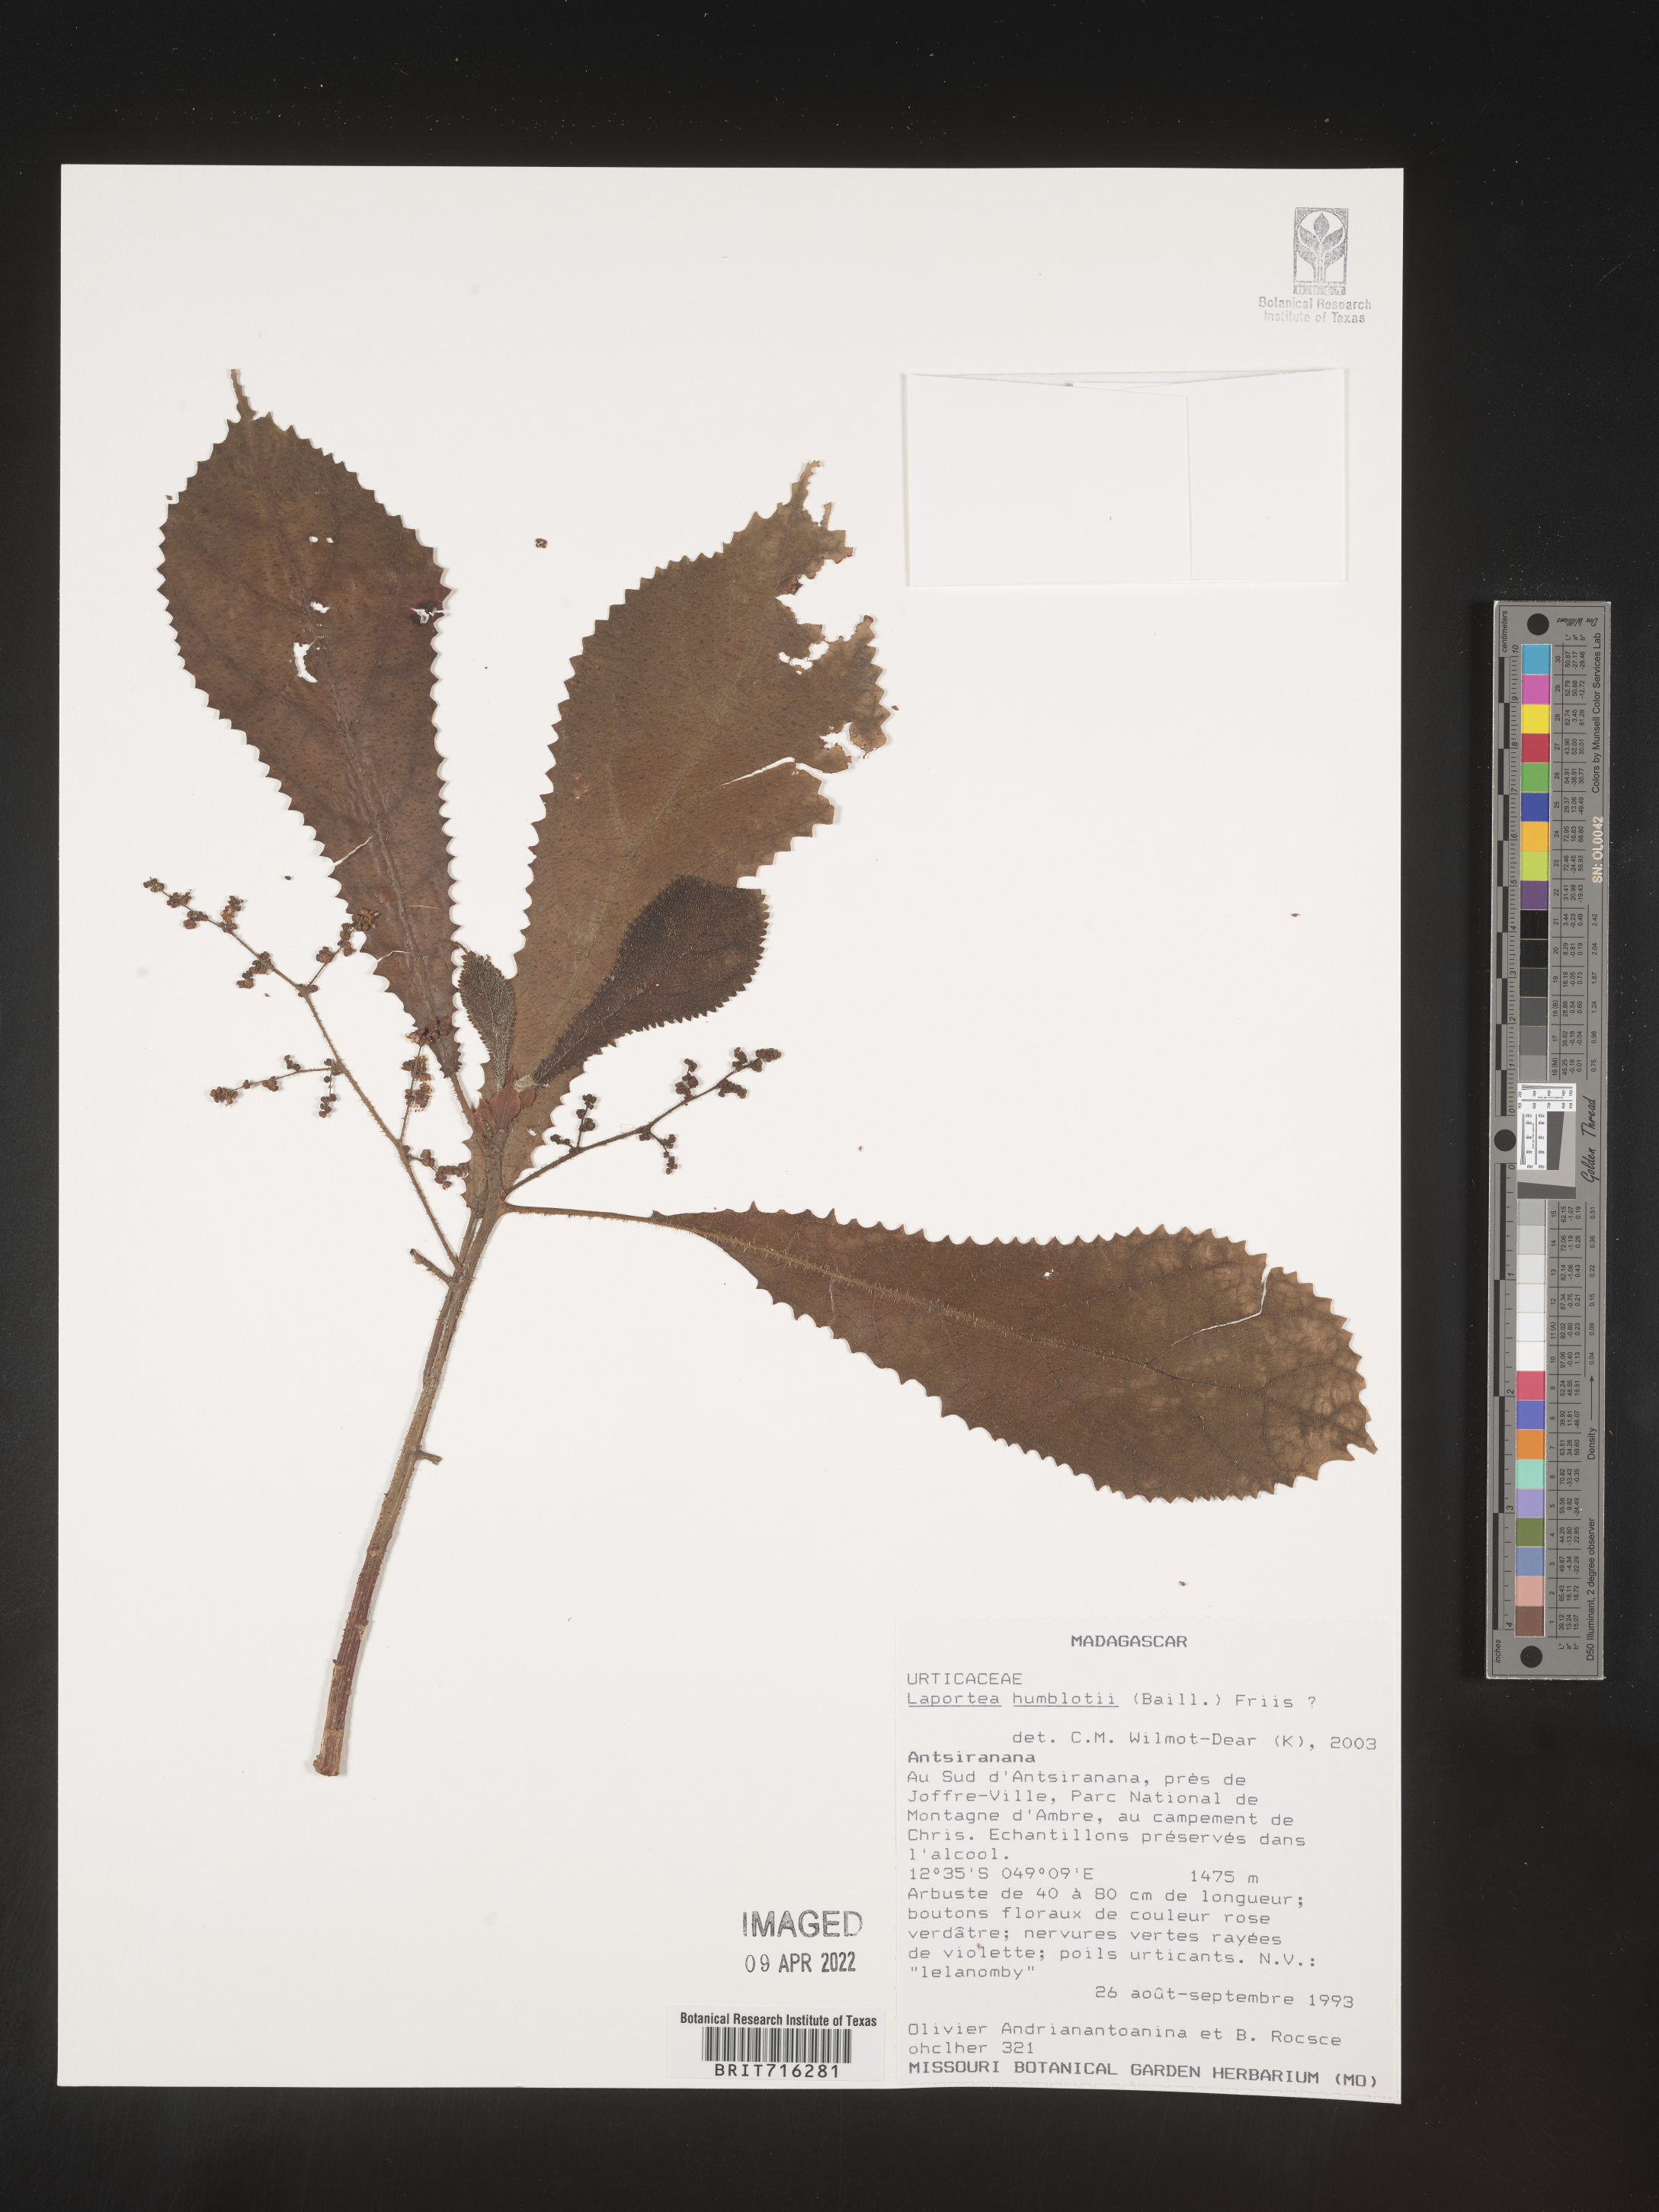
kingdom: Plantae
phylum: Tracheophyta
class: Magnoliopsida
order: Rosales
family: Urticaceae
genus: Laportea
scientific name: Laportea
